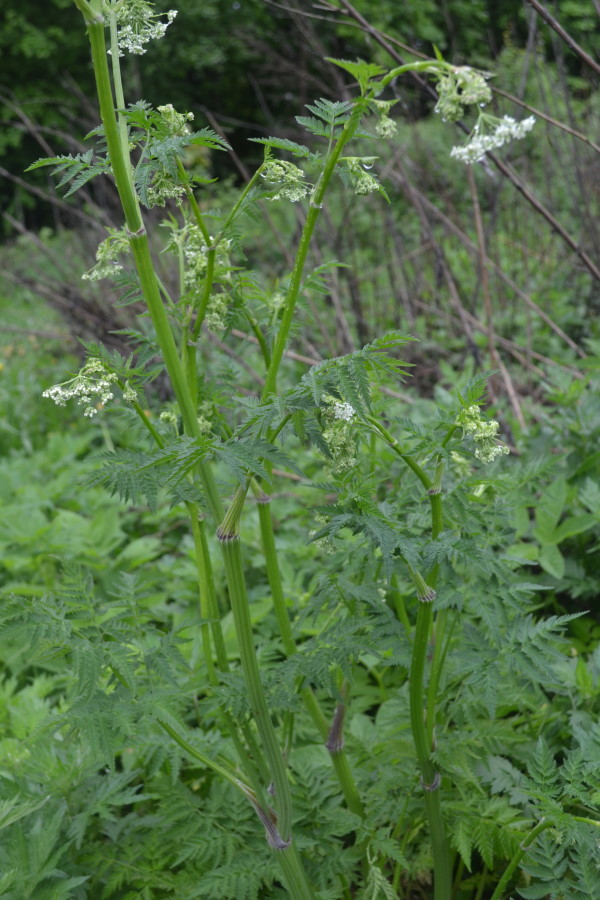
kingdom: Plantae
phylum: Tracheophyta
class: Magnoliopsida
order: Apiales
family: Apiaceae
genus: Anthriscus
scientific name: Anthriscus sylvestris
